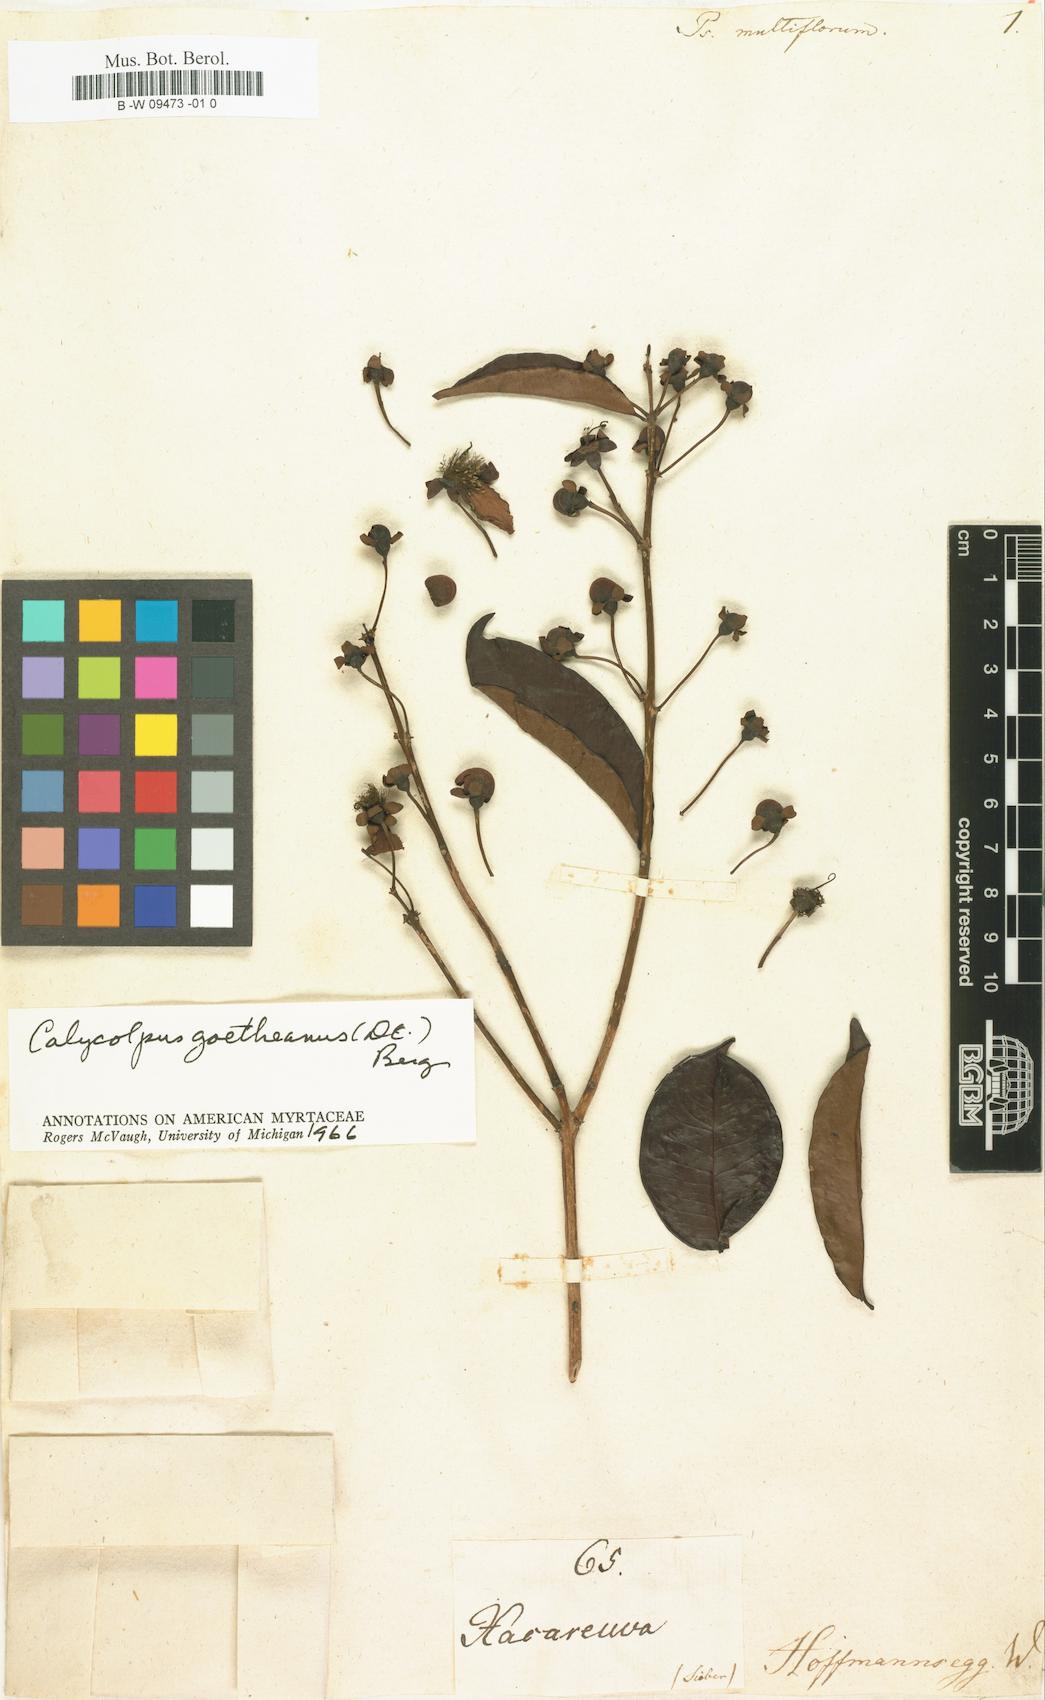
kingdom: Plantae
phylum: Tracheophyta
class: Magnoliopsida
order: Myrtales
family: Myrtaceae
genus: Psidium
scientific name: Psidium guineense
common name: Brazilian guava
